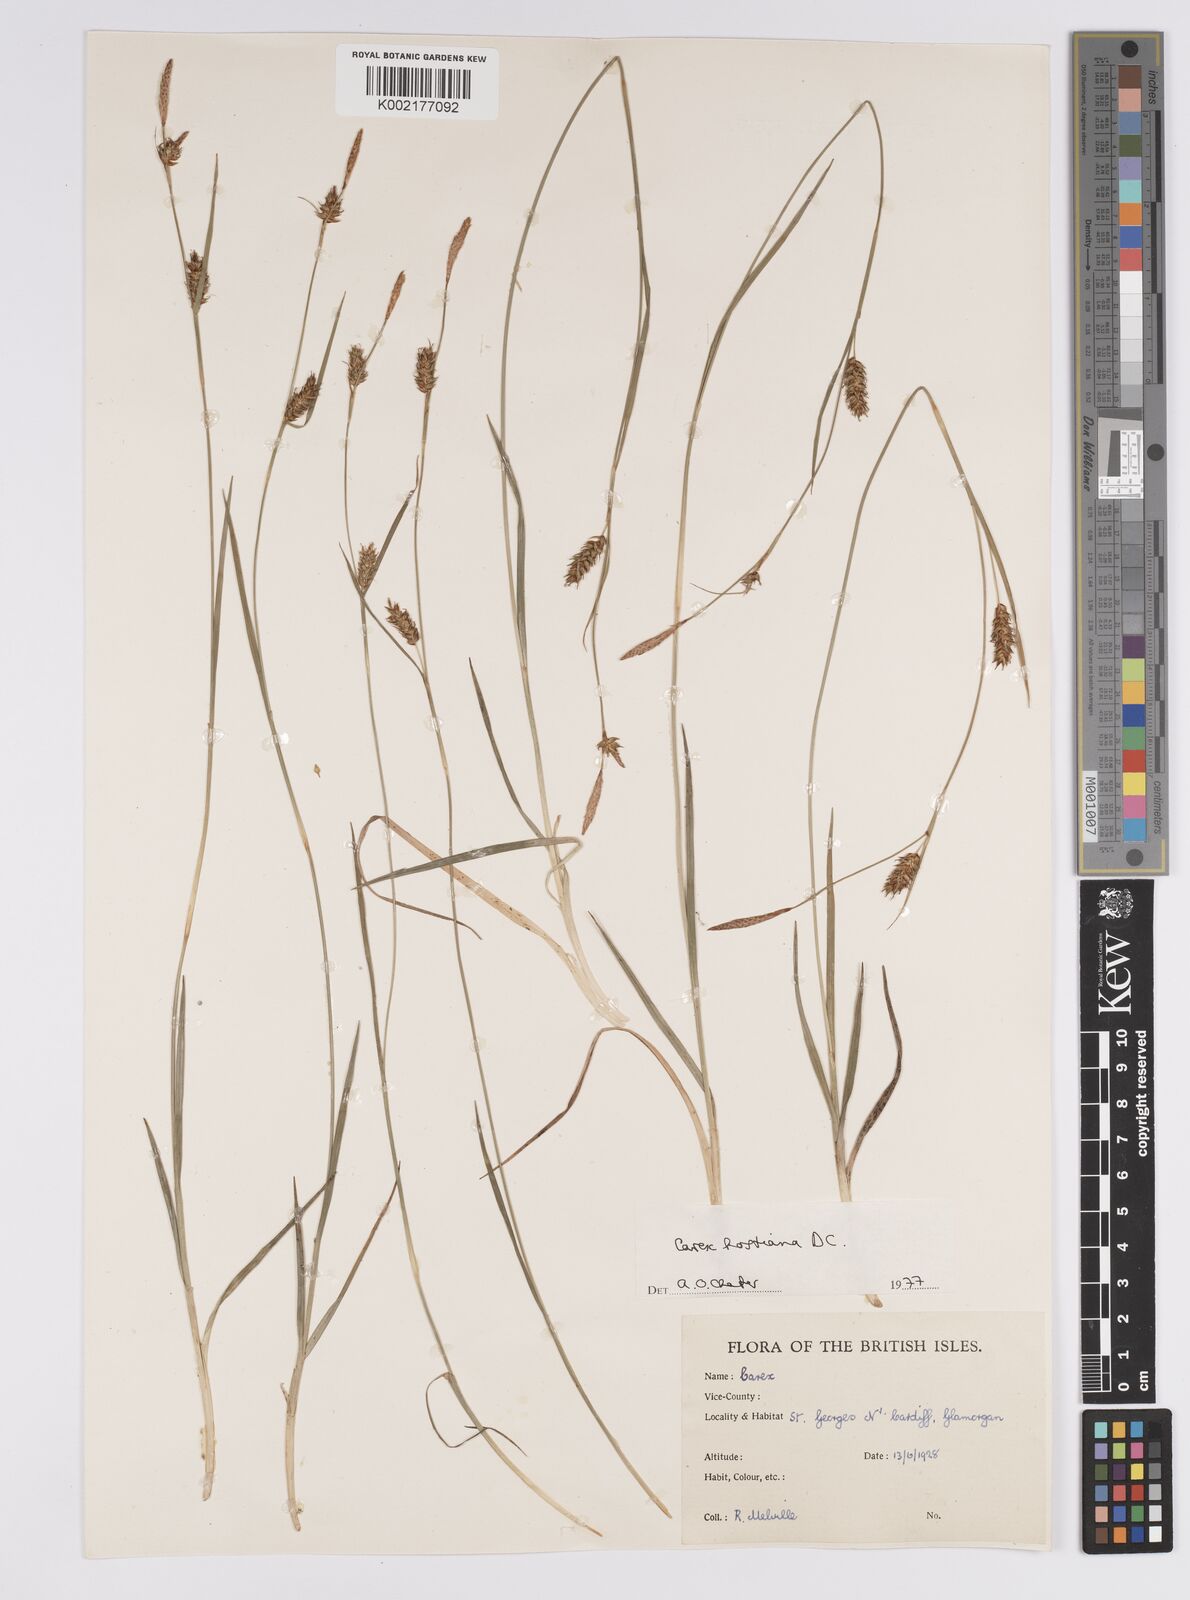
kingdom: Plantae
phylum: Tracheophyta
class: Liliopsida
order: Poales
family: Cyperaceae
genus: Carex
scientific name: Carex hostiana
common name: Tawny sedge
